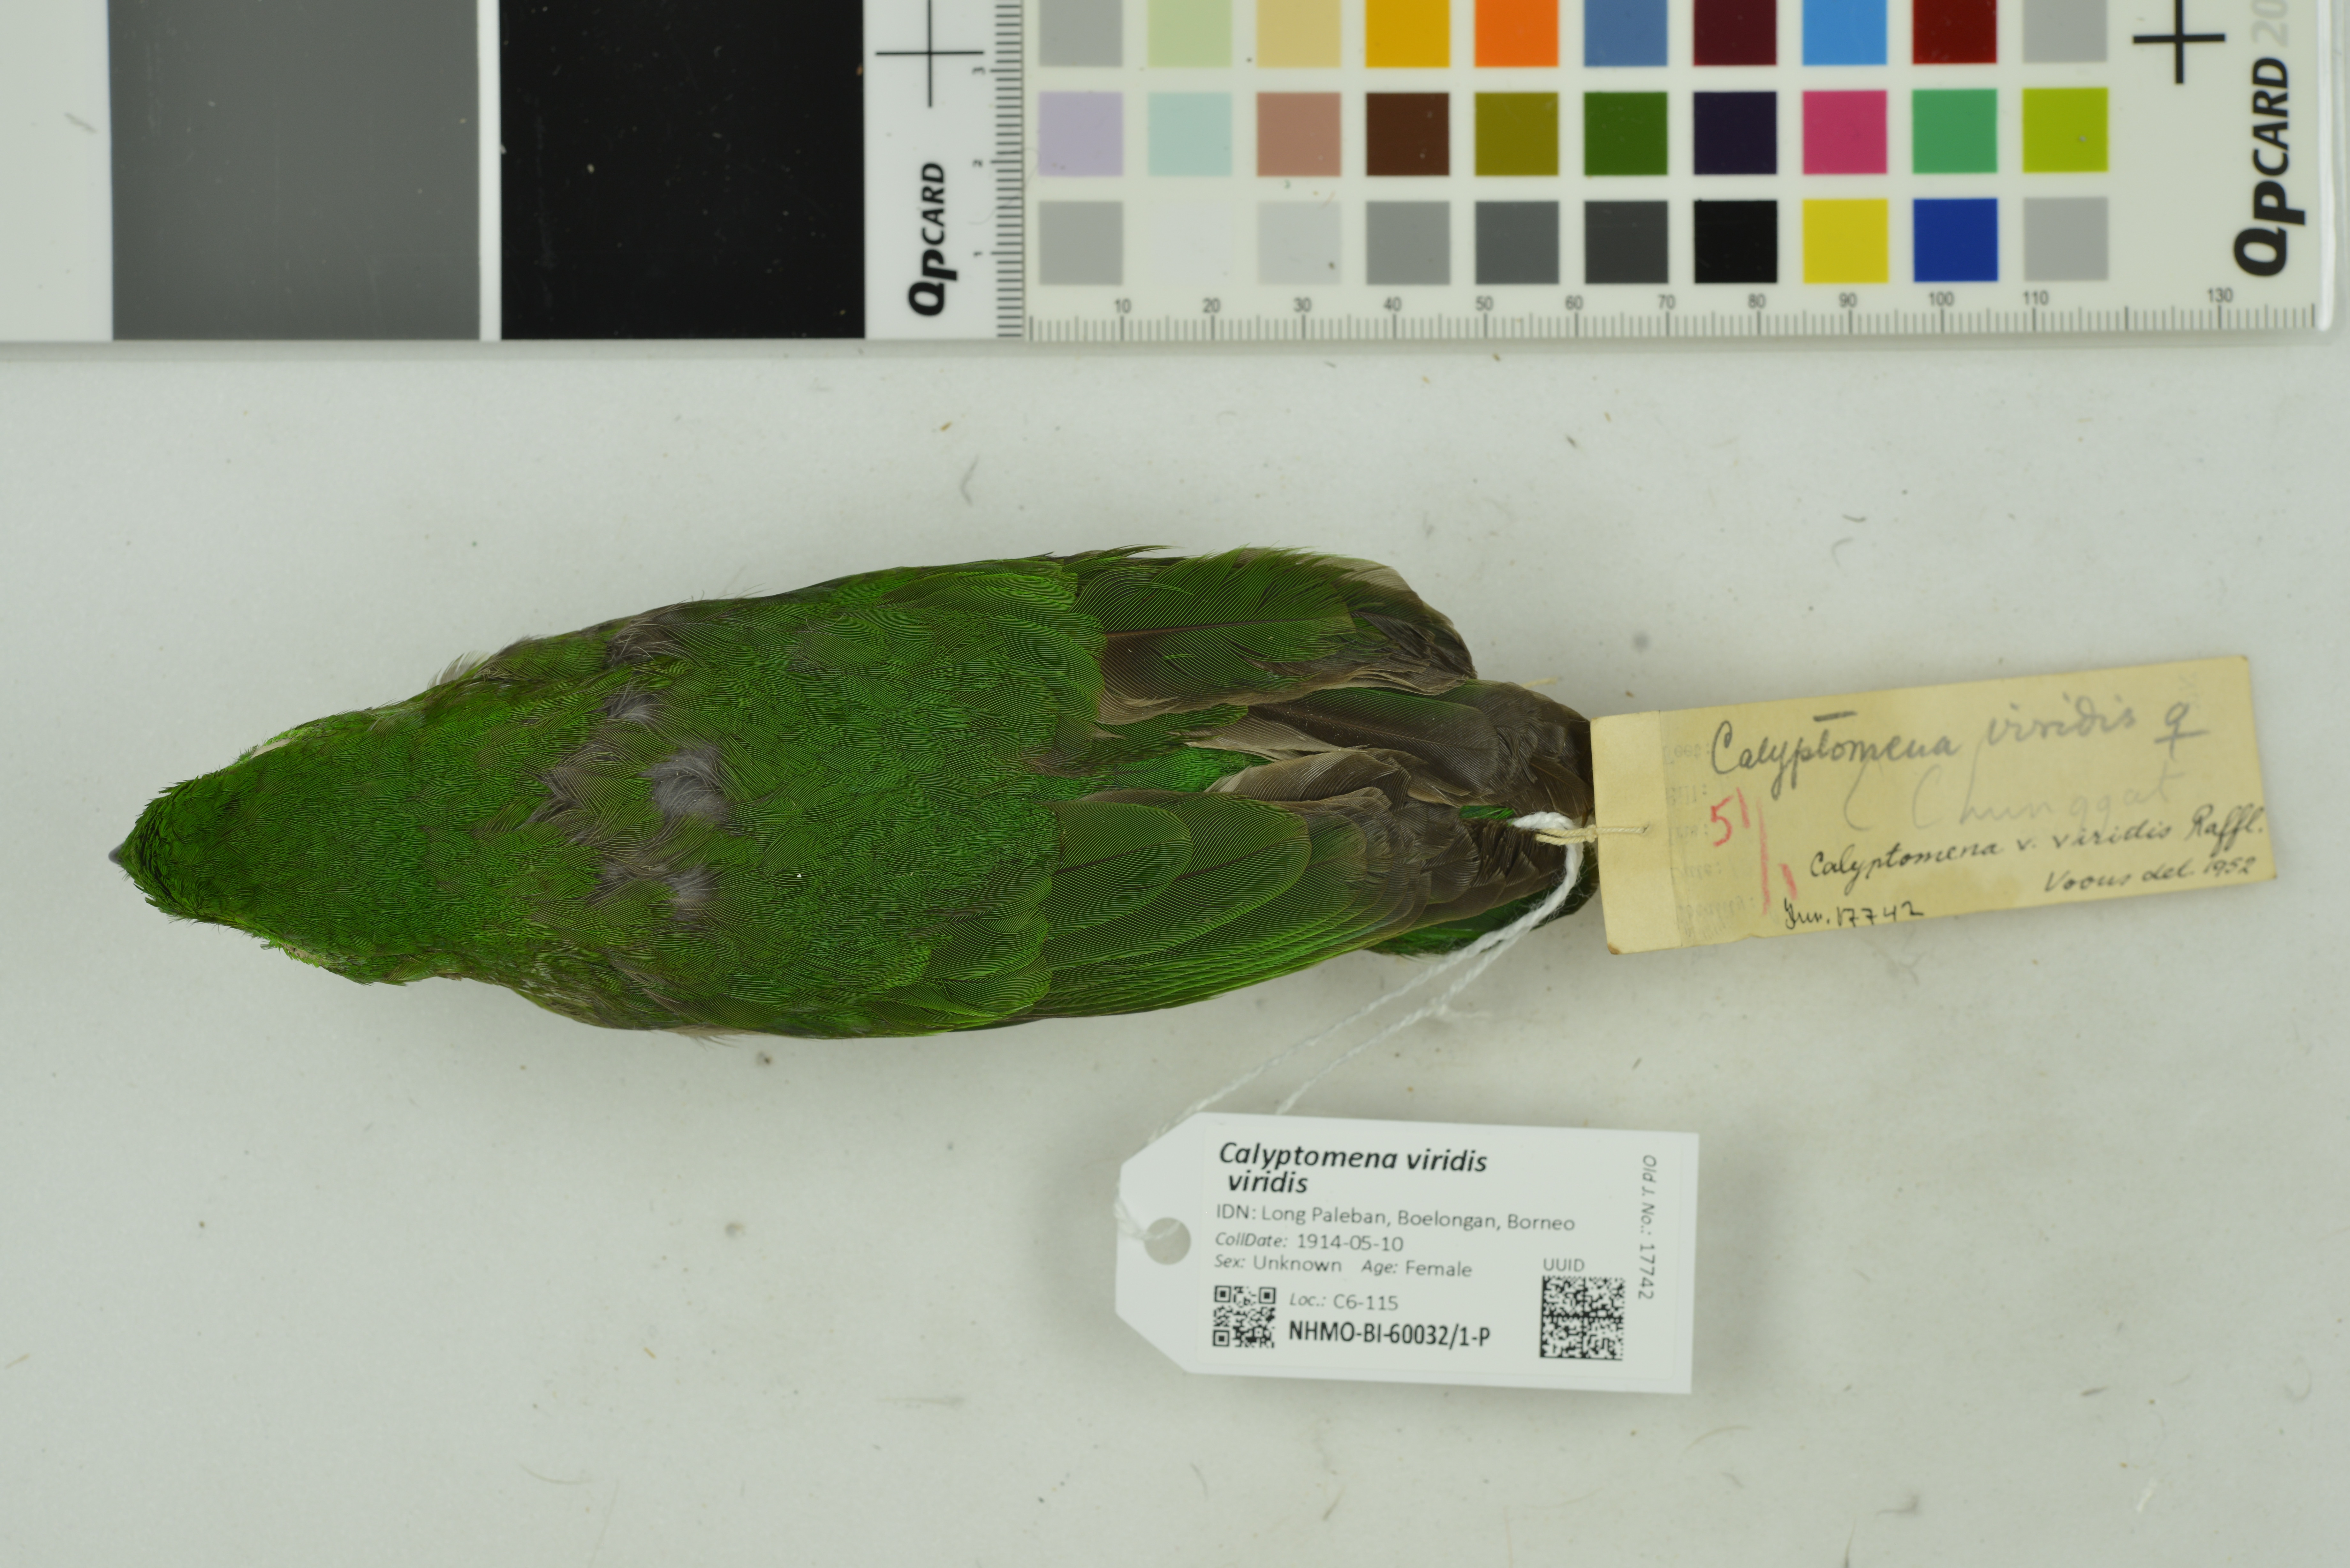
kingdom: Animalia
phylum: Chordata
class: Aves
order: Passeriformes
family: Eurylaimidae
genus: Calyptomena
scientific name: Calyptomena viridis
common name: Green broadbill
